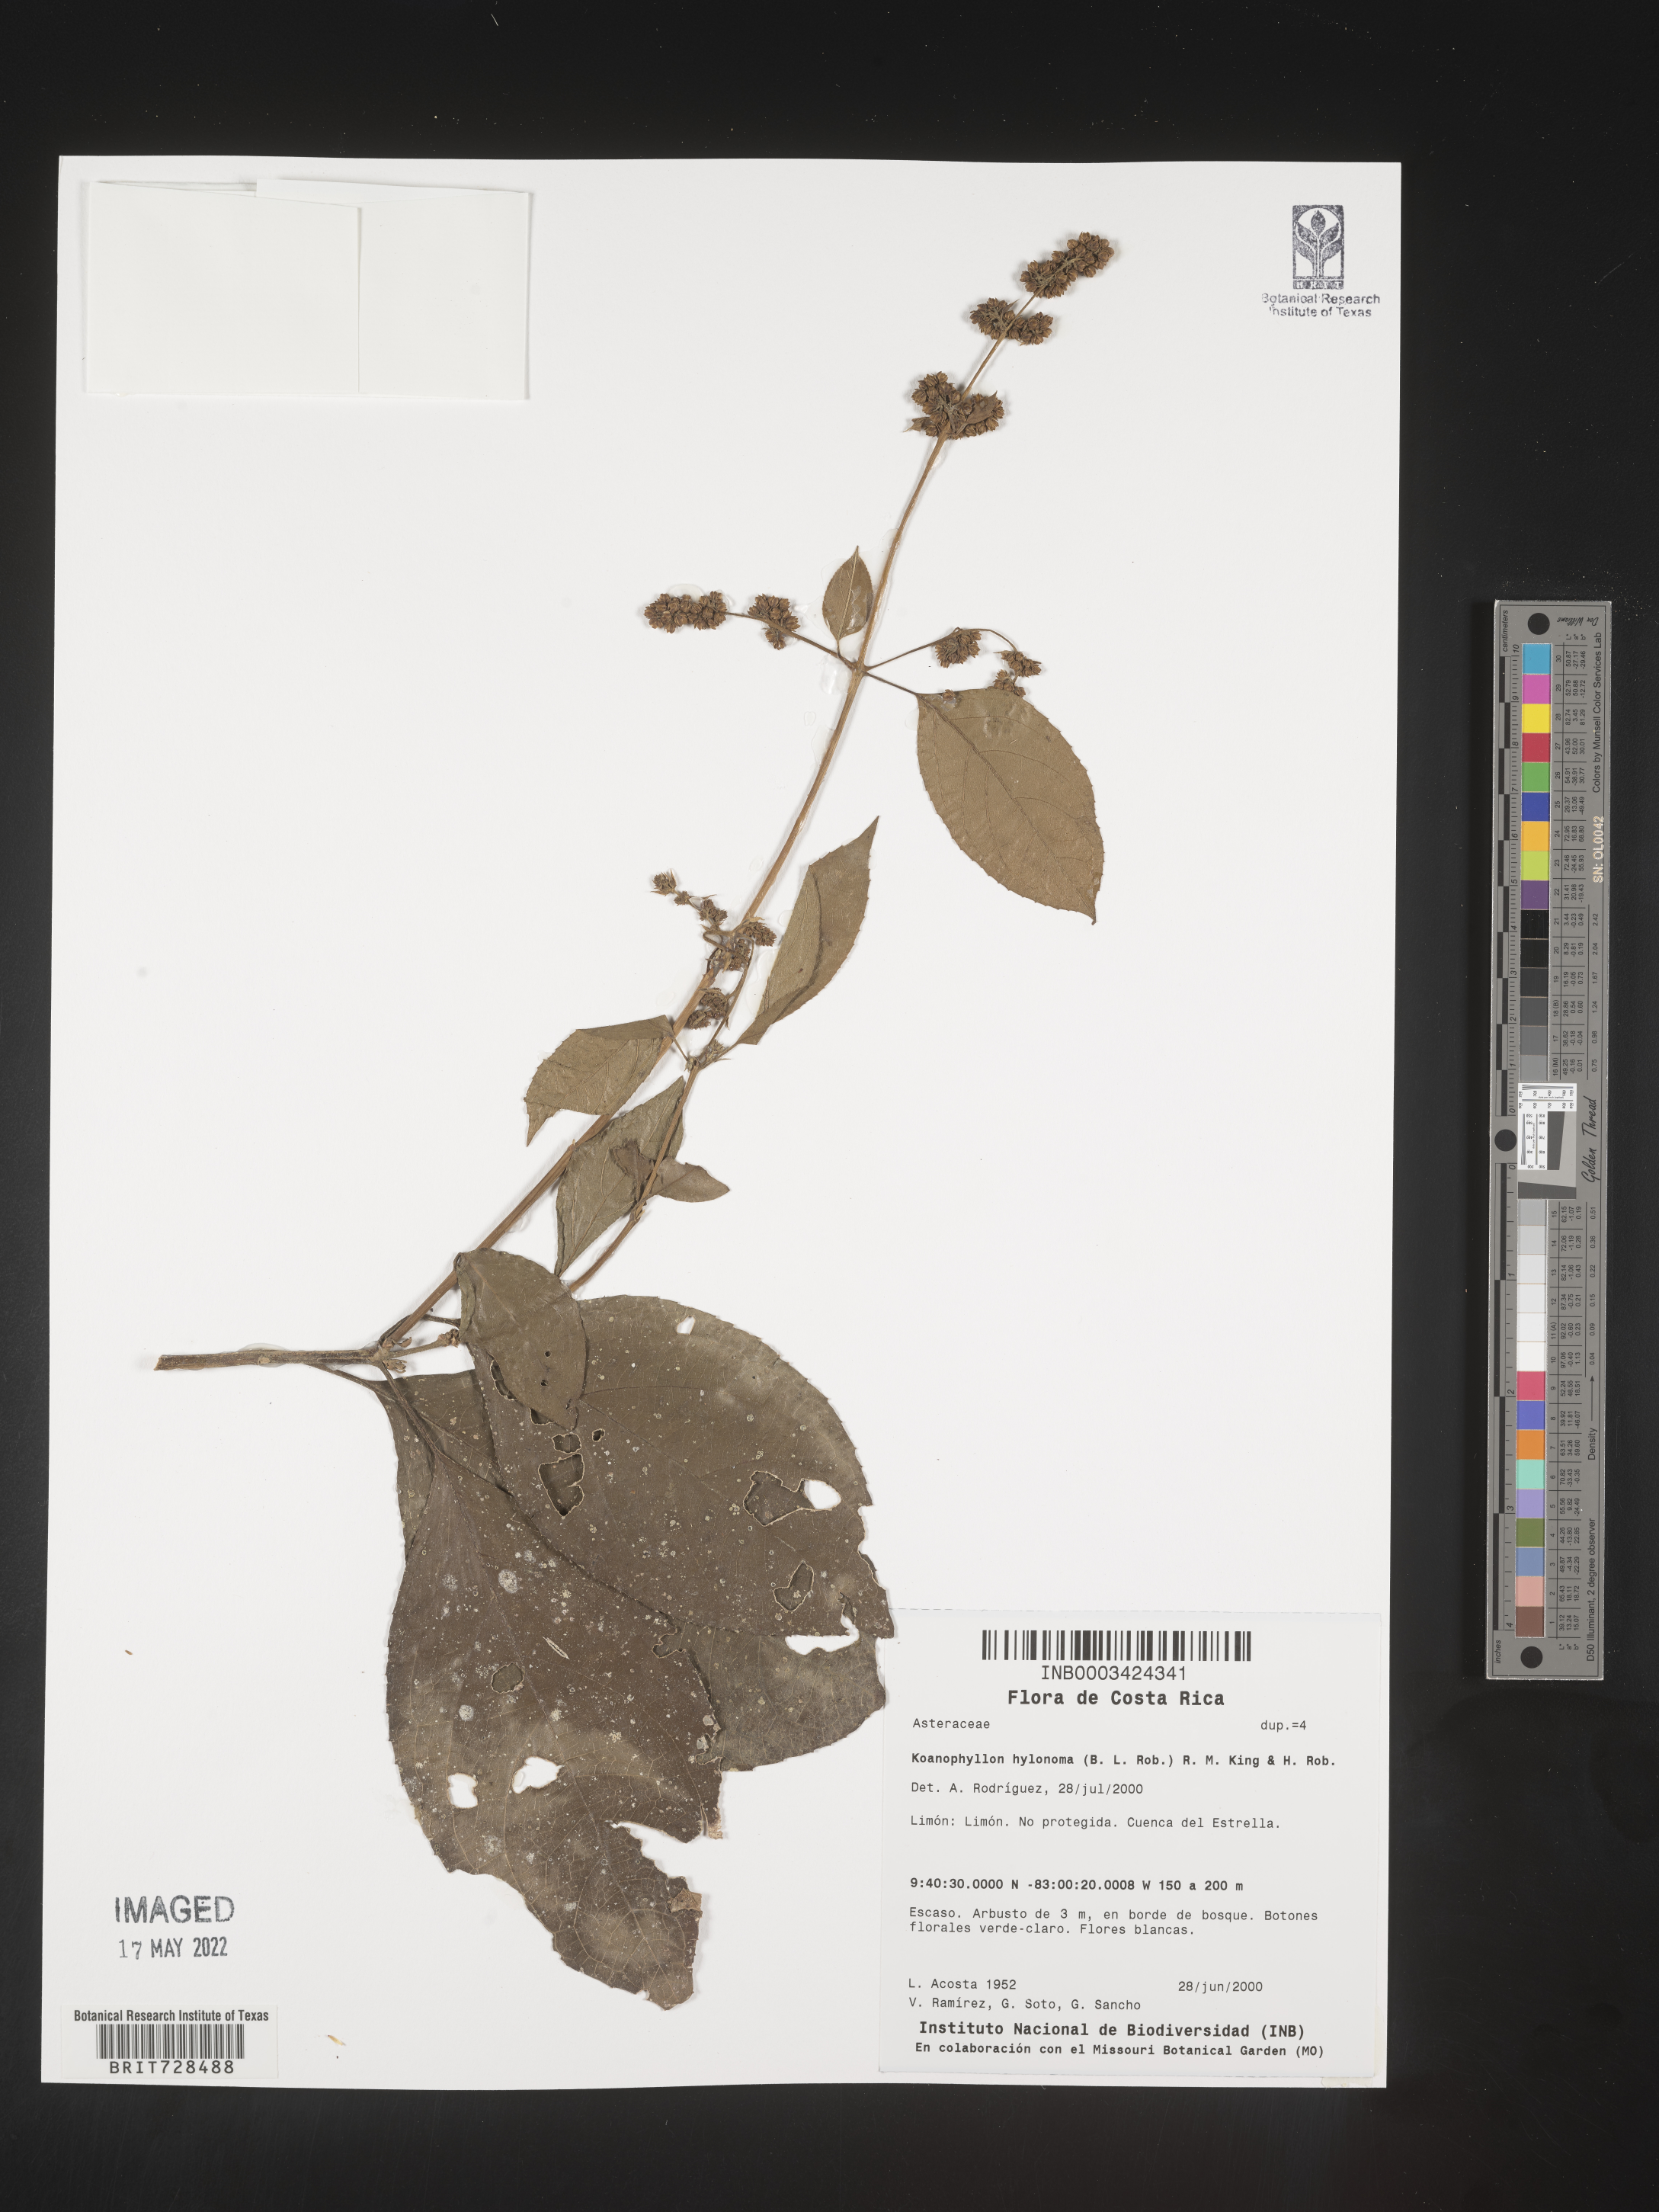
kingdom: Plantae
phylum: Tracheophyta
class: Magnoliopsida
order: Asterales
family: Asteraceae
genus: Koanophyllon
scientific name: Koanophyllon
